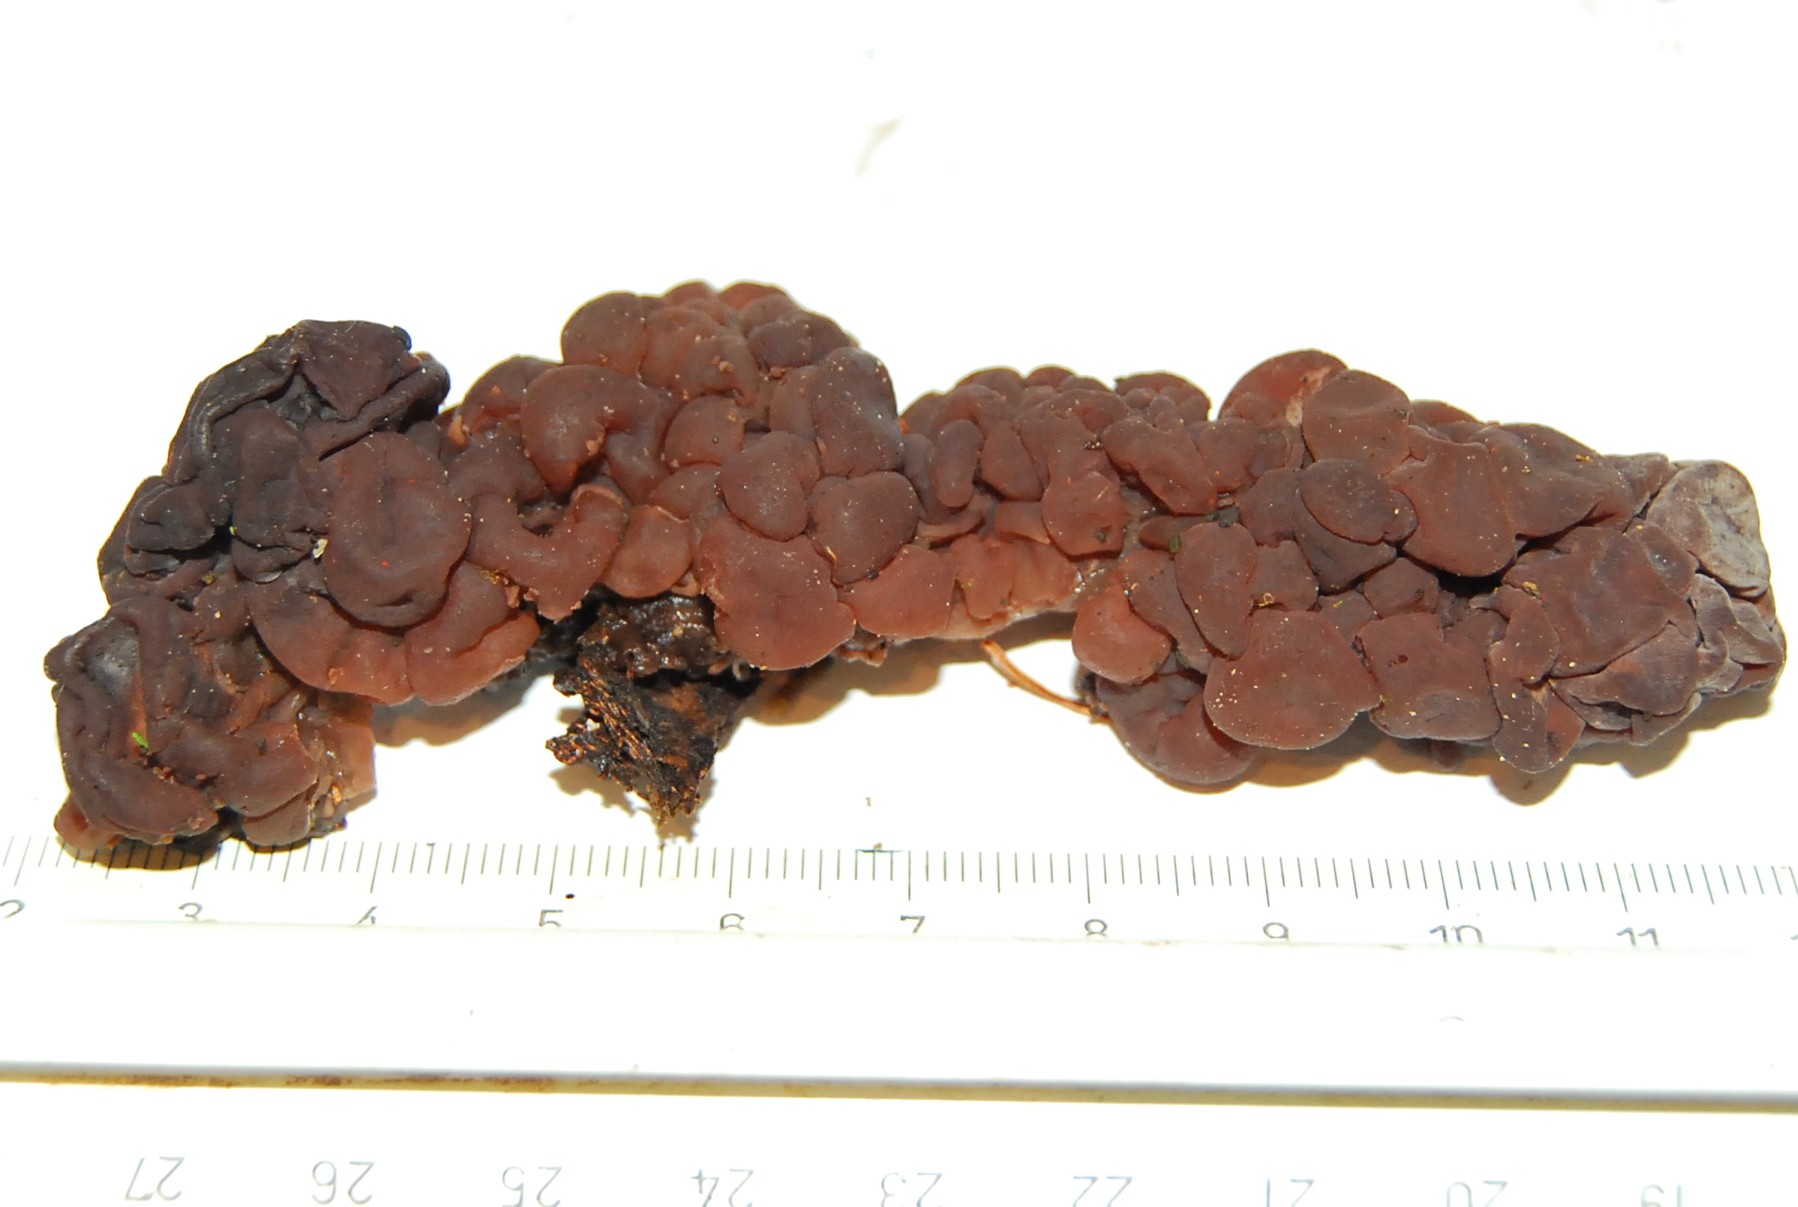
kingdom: Fungi
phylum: Ascomycota
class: Leotiomycetes
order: Helotiales
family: Gelatinodiscaceae
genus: Ascotremella
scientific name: Ascotremella faginea
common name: hjerne-bævreskive
